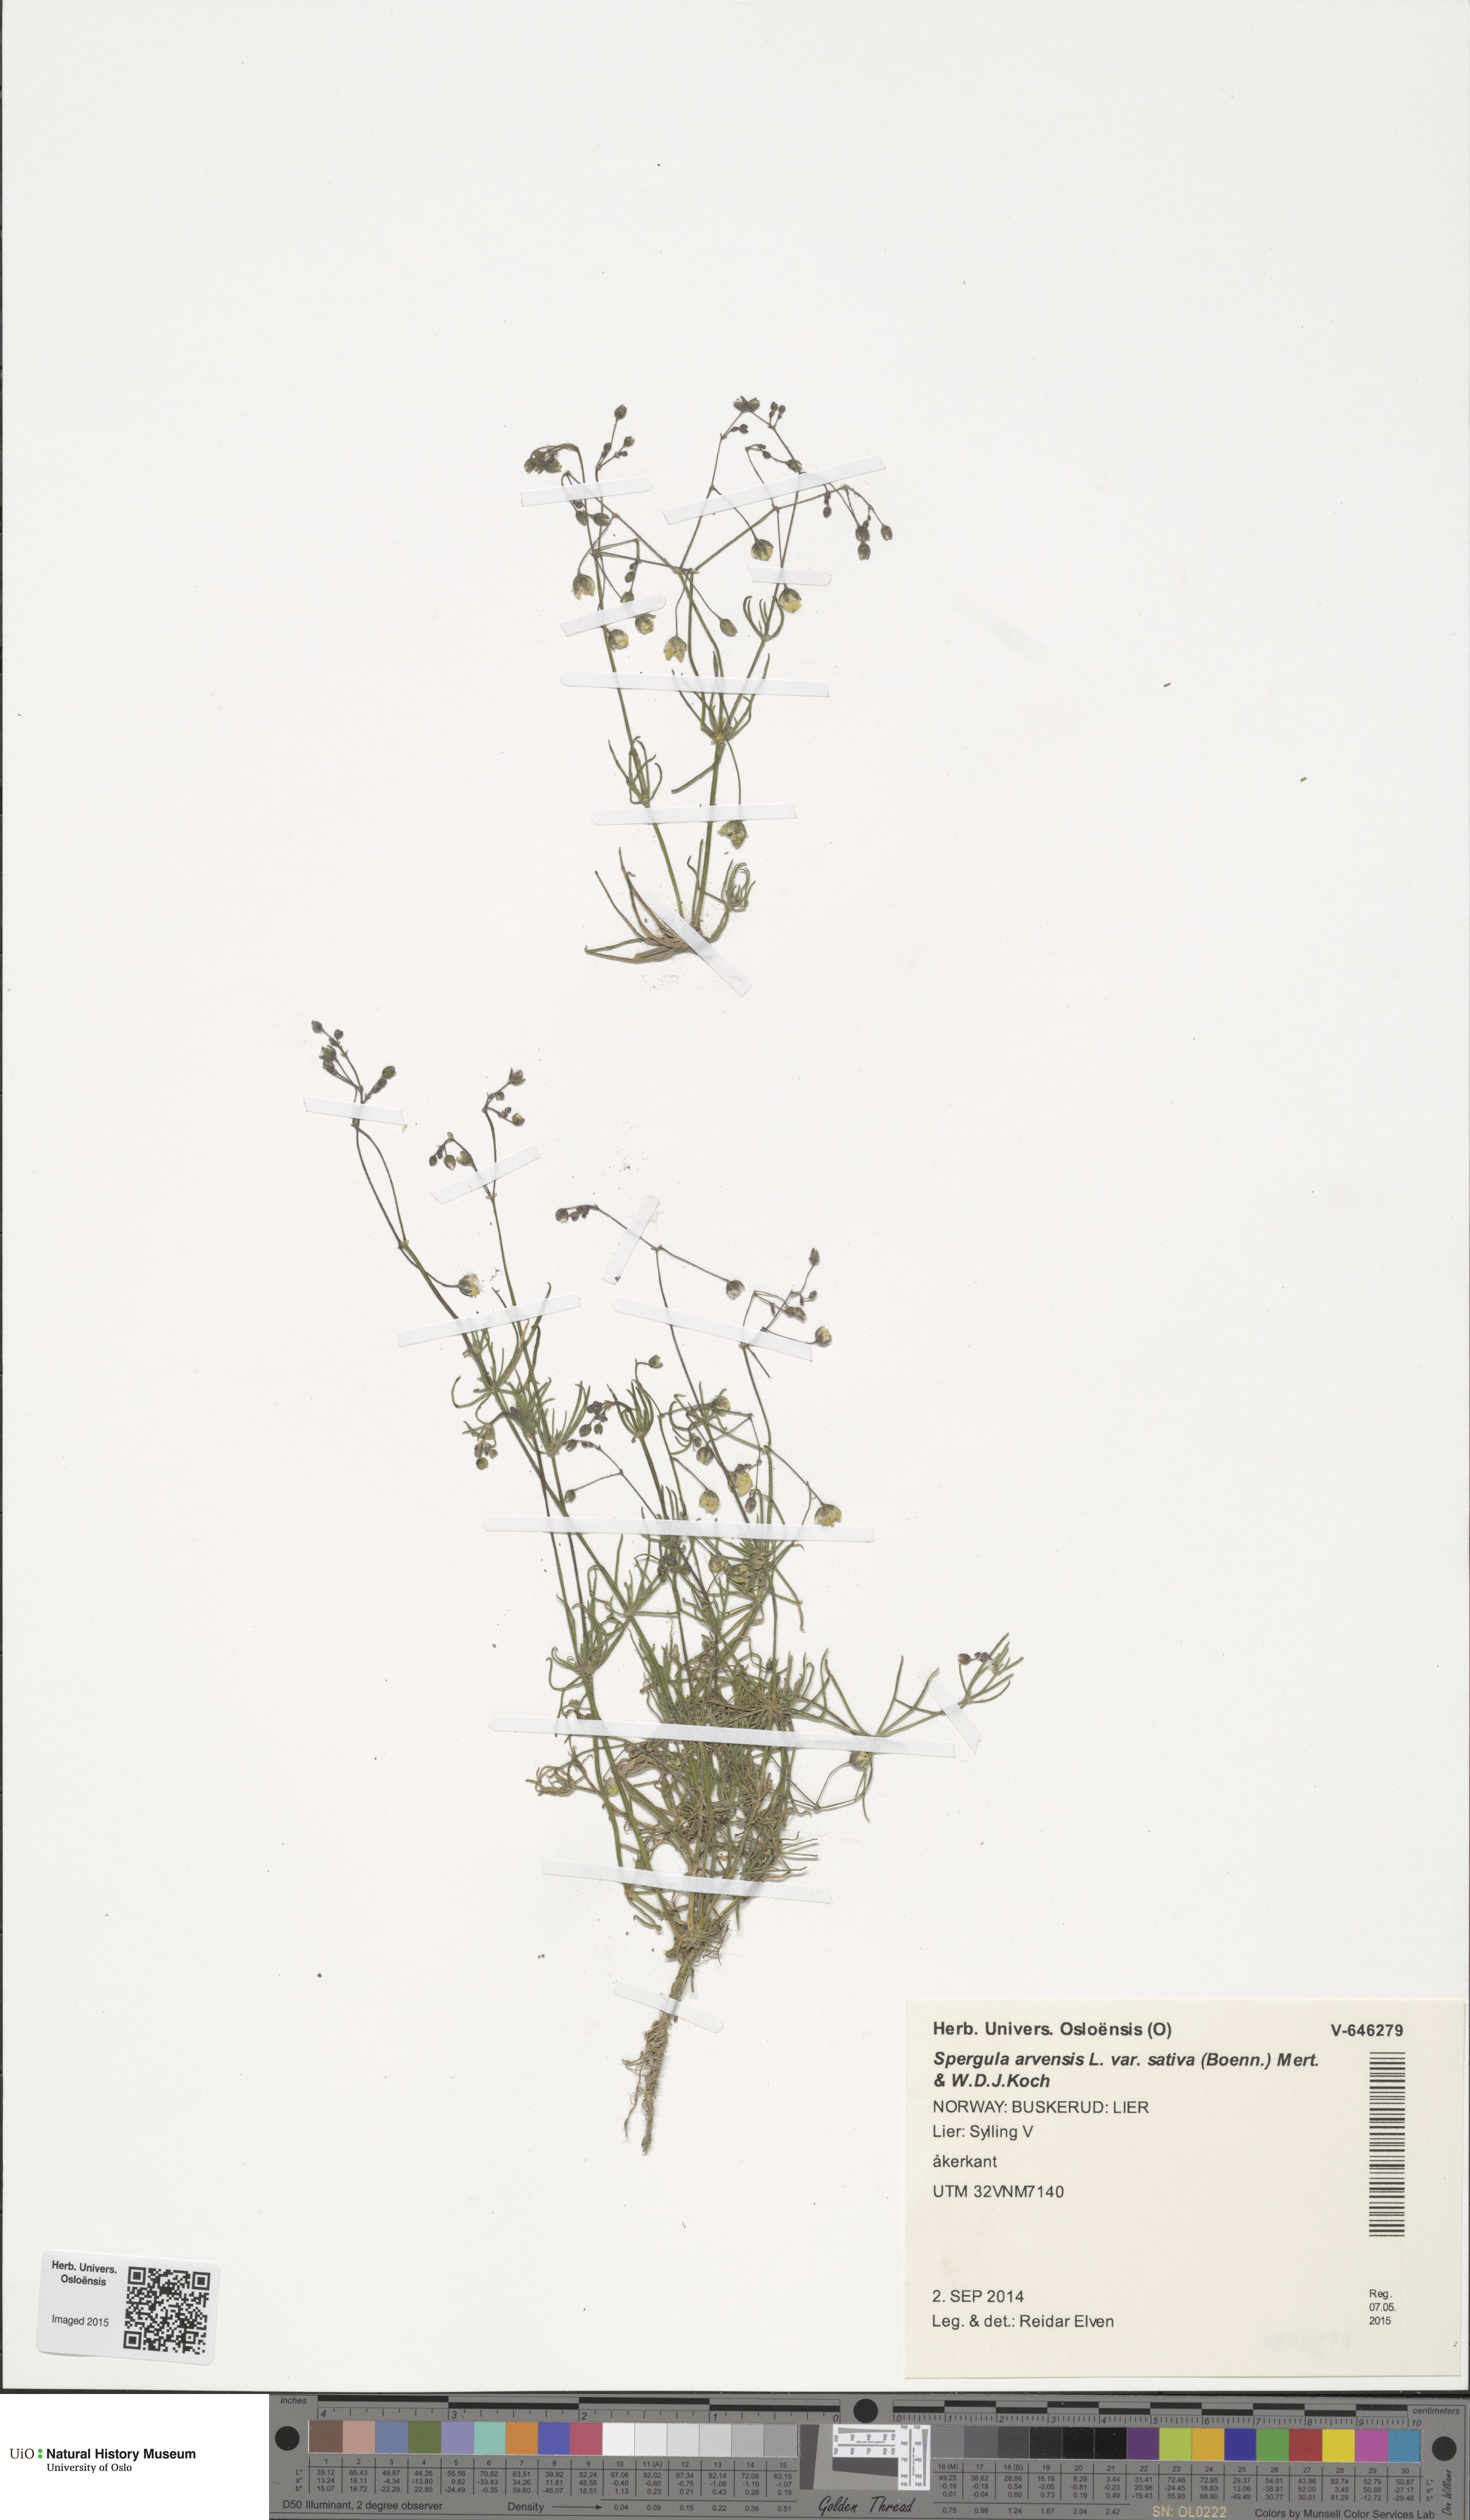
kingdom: Plantae
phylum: Tracheophyta
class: Magnoliopsida
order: Caryophyllales
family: Caryophyllaceae
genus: Spergula
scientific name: Spergula arvensis
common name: Corn spurrey
